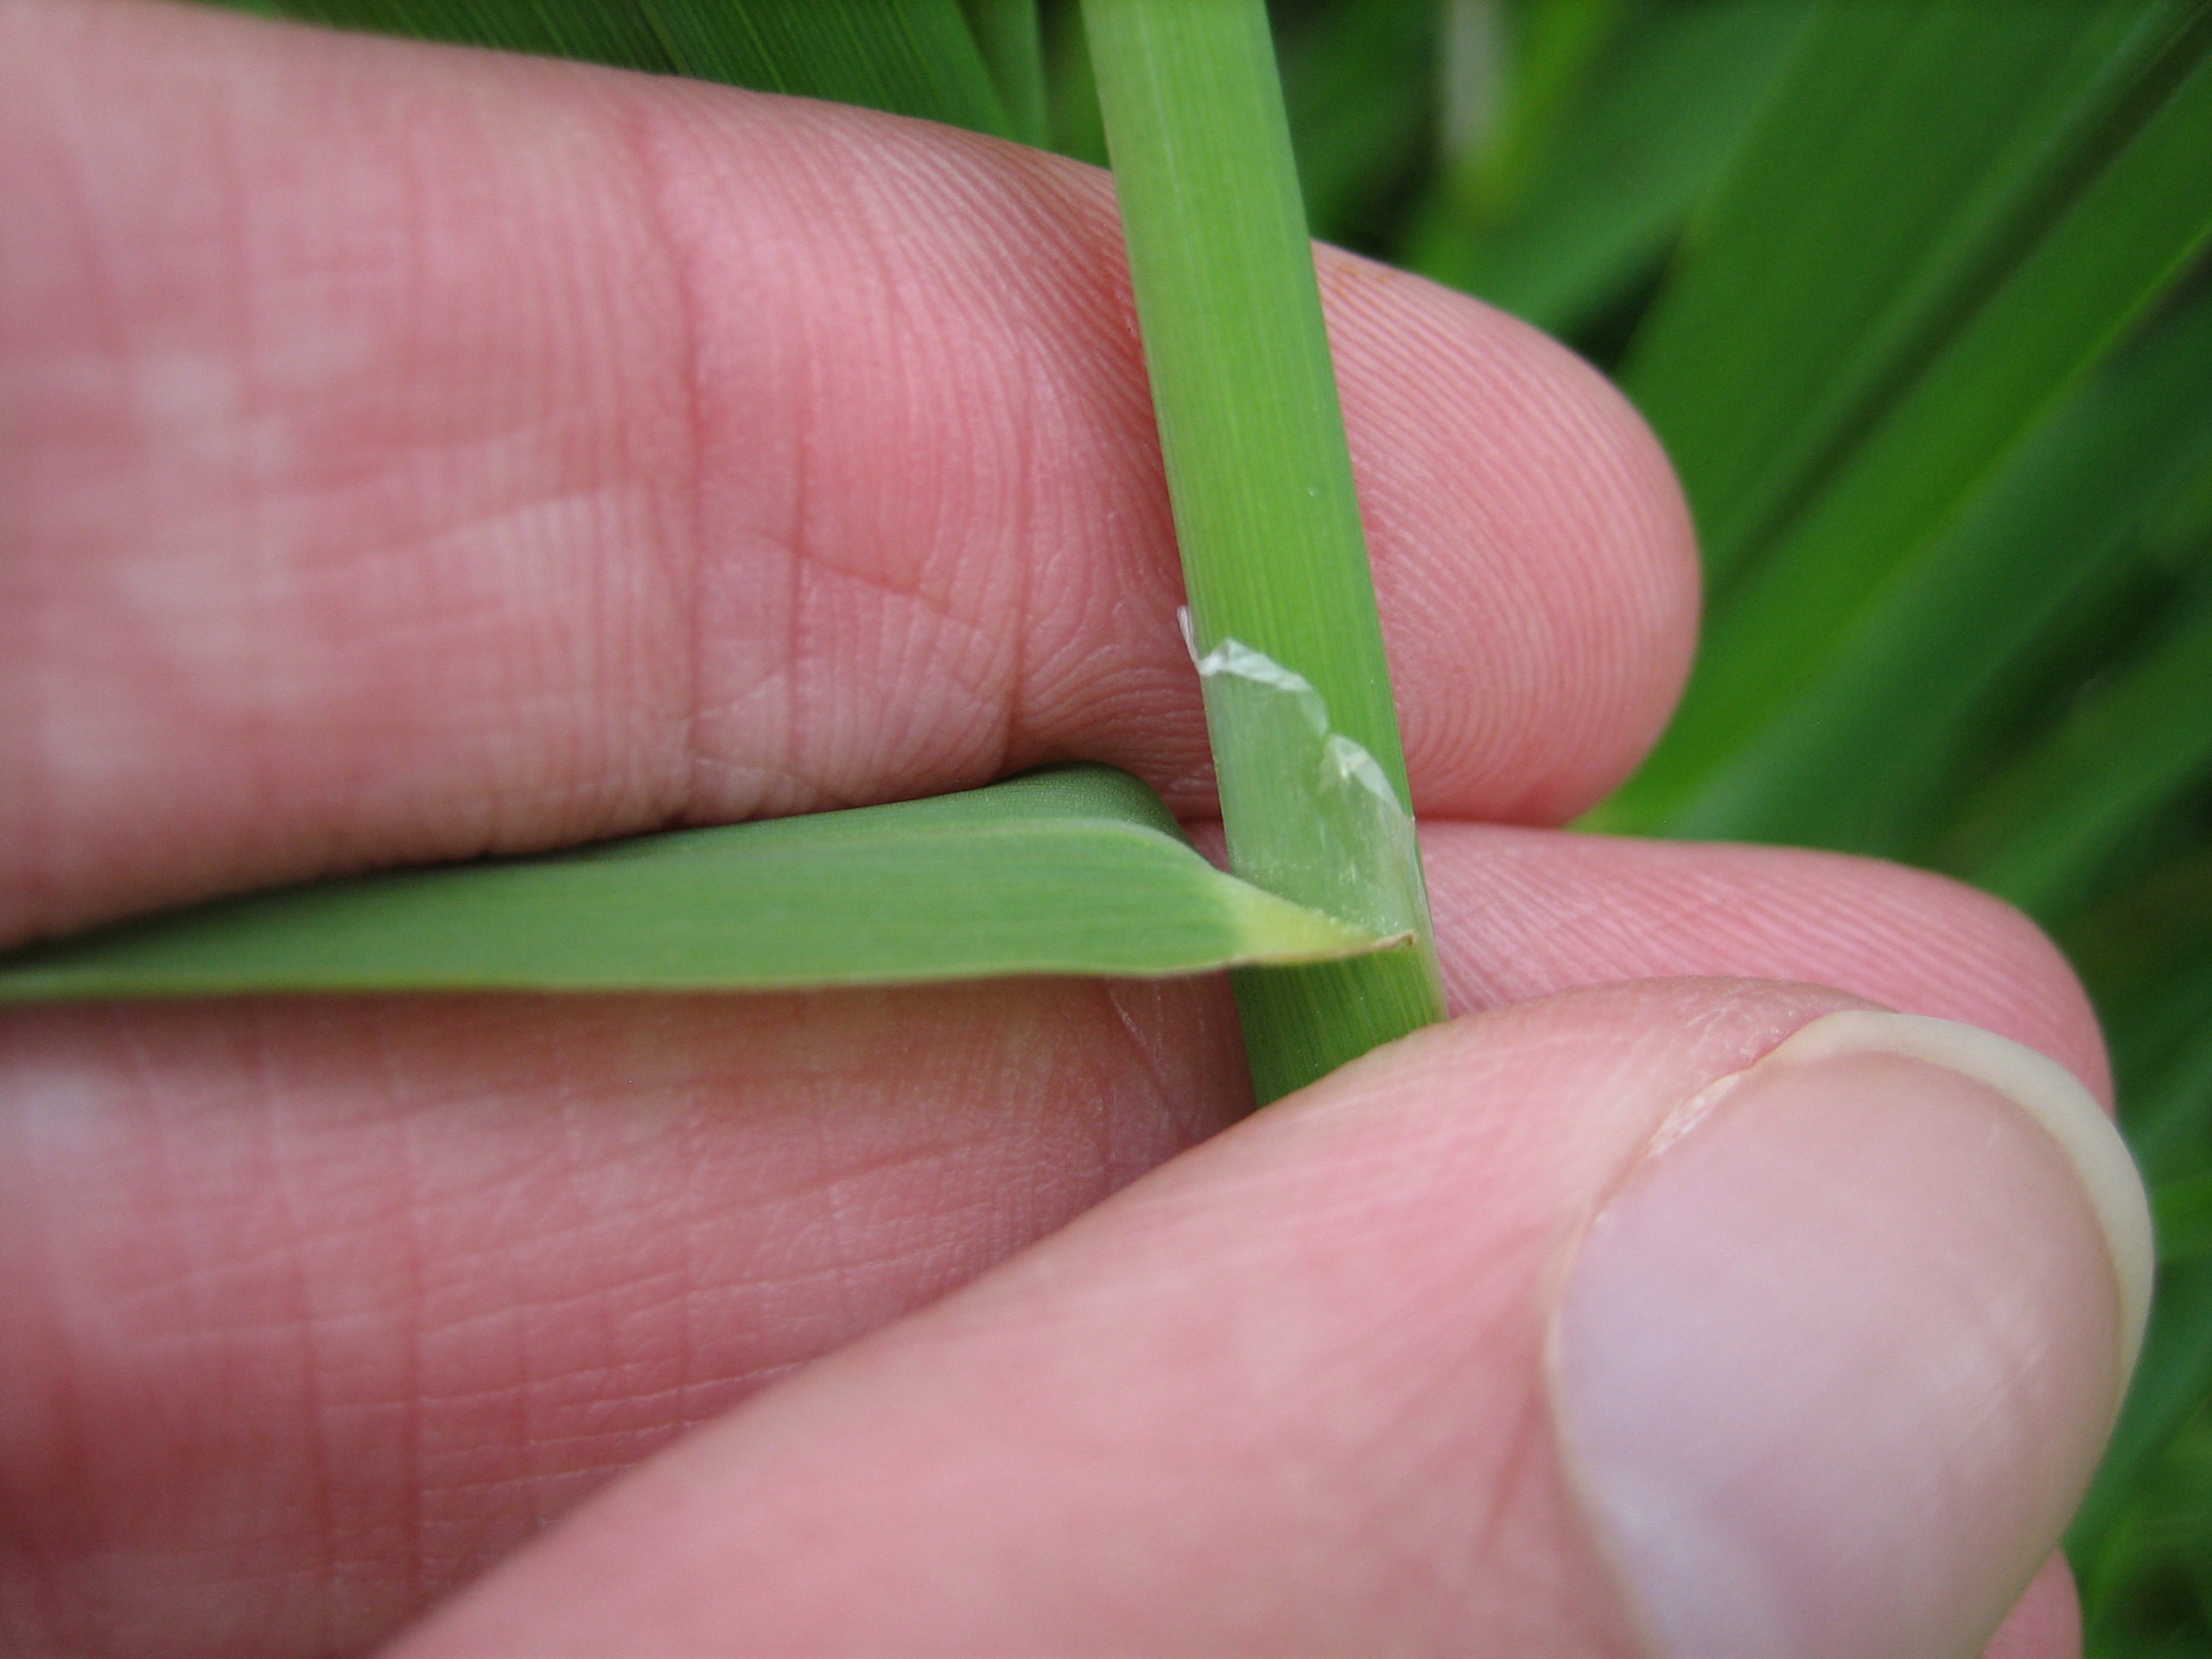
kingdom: Plantae
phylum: Tracheophyta
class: Liliopsida
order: Poales
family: Poaceae
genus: Phalaris
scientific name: Phalaris arundinacea
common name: Rørgræs
